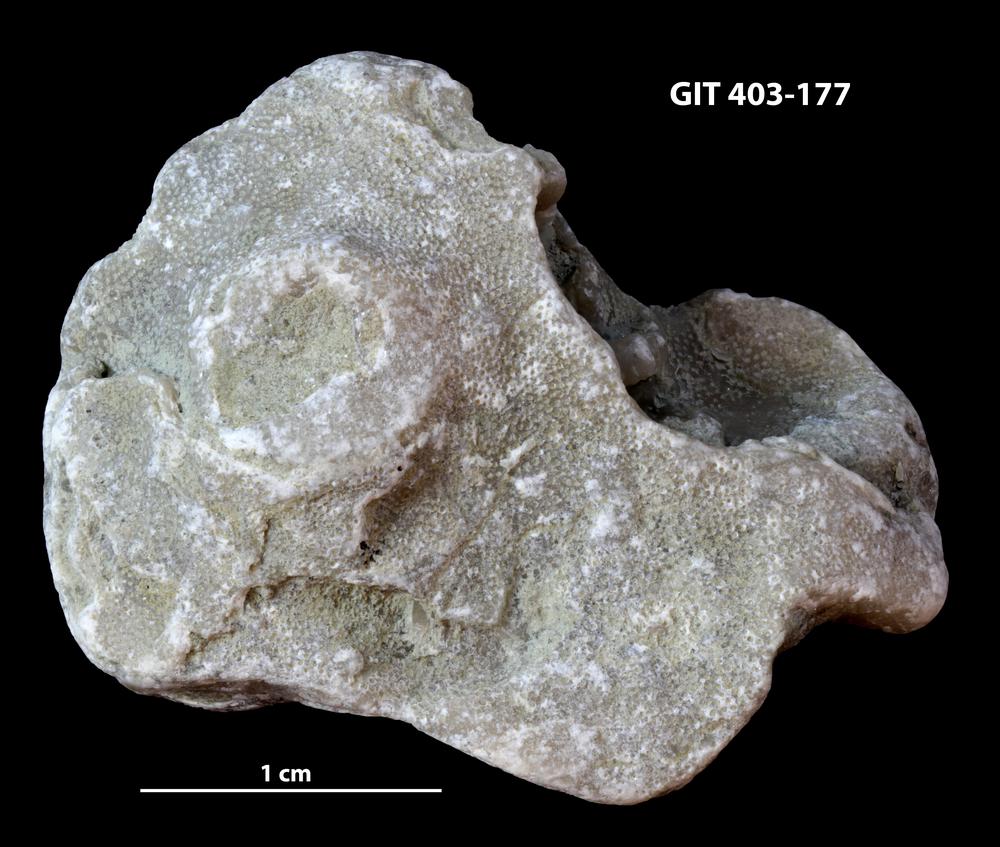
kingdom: Animalia
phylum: Bryozoa
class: Stenolaemata
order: Cystoporida
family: Fistuliporidae
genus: Fistulipora
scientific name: Fistulipora przhidolensis
